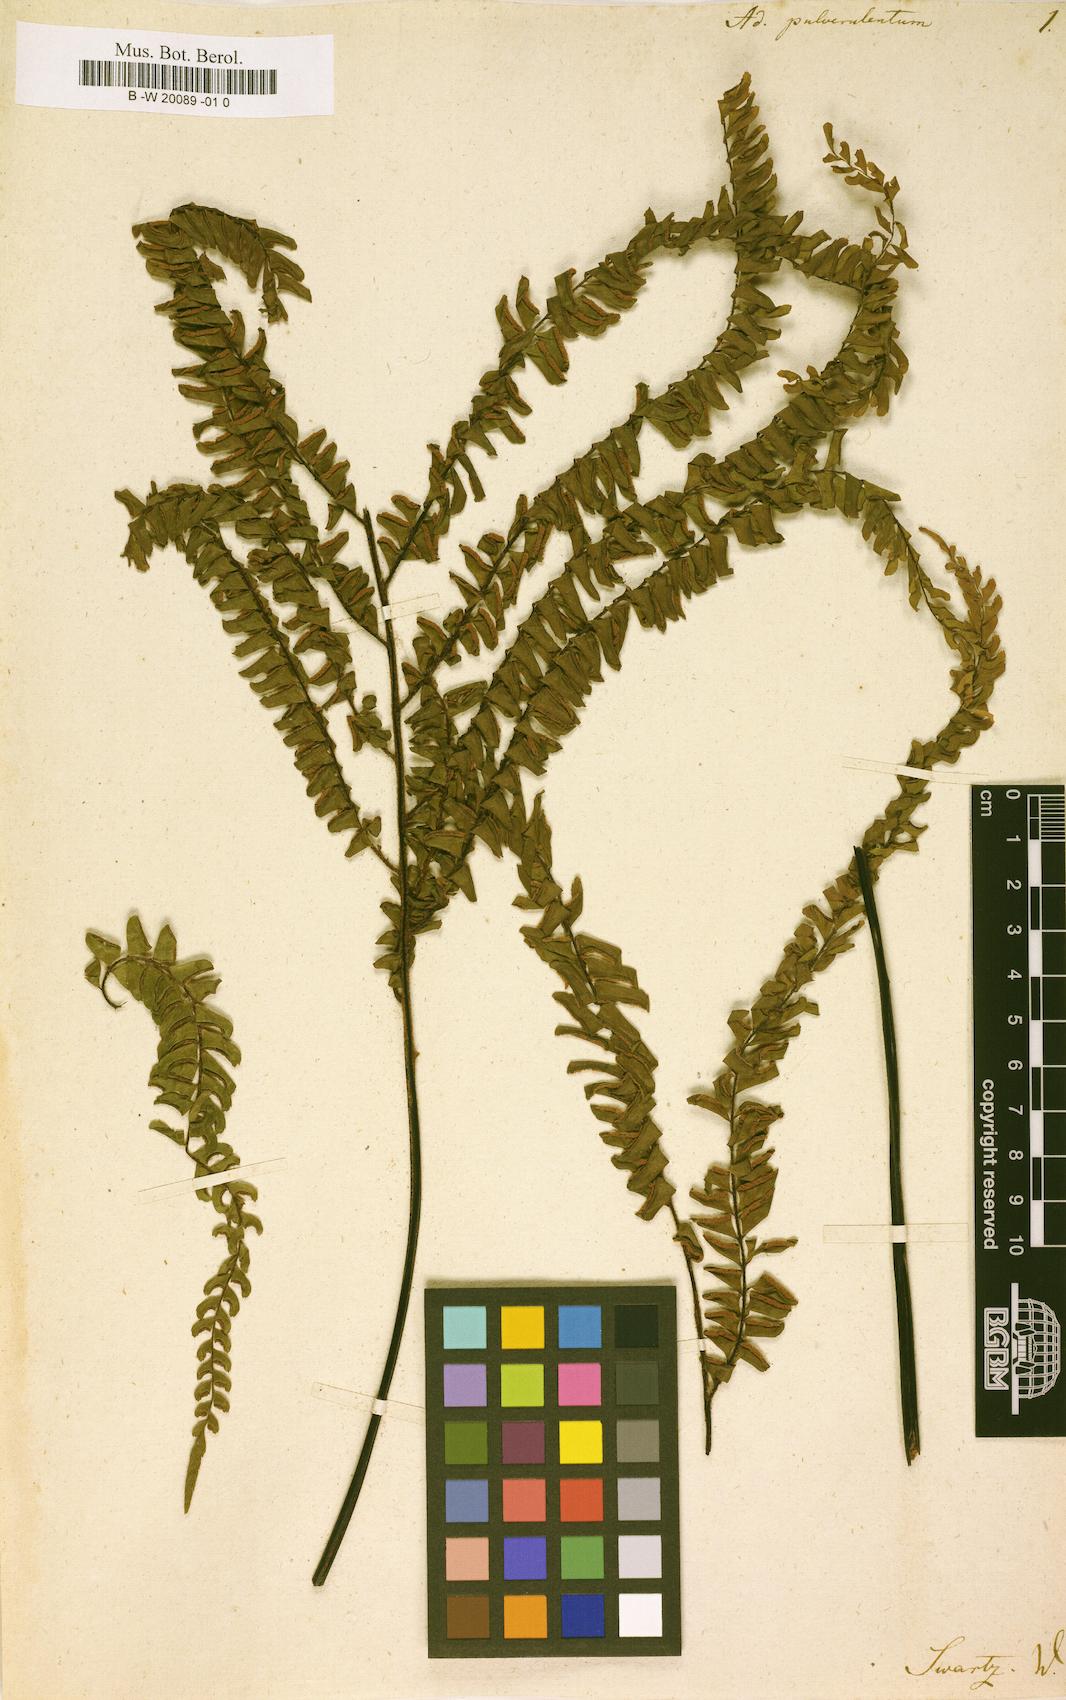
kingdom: Plantae
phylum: Tracheophyta
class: Polypodiopsida
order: Polypodiales
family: Pteridaceae
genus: Adiantum
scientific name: Adiantum pulverulentum
